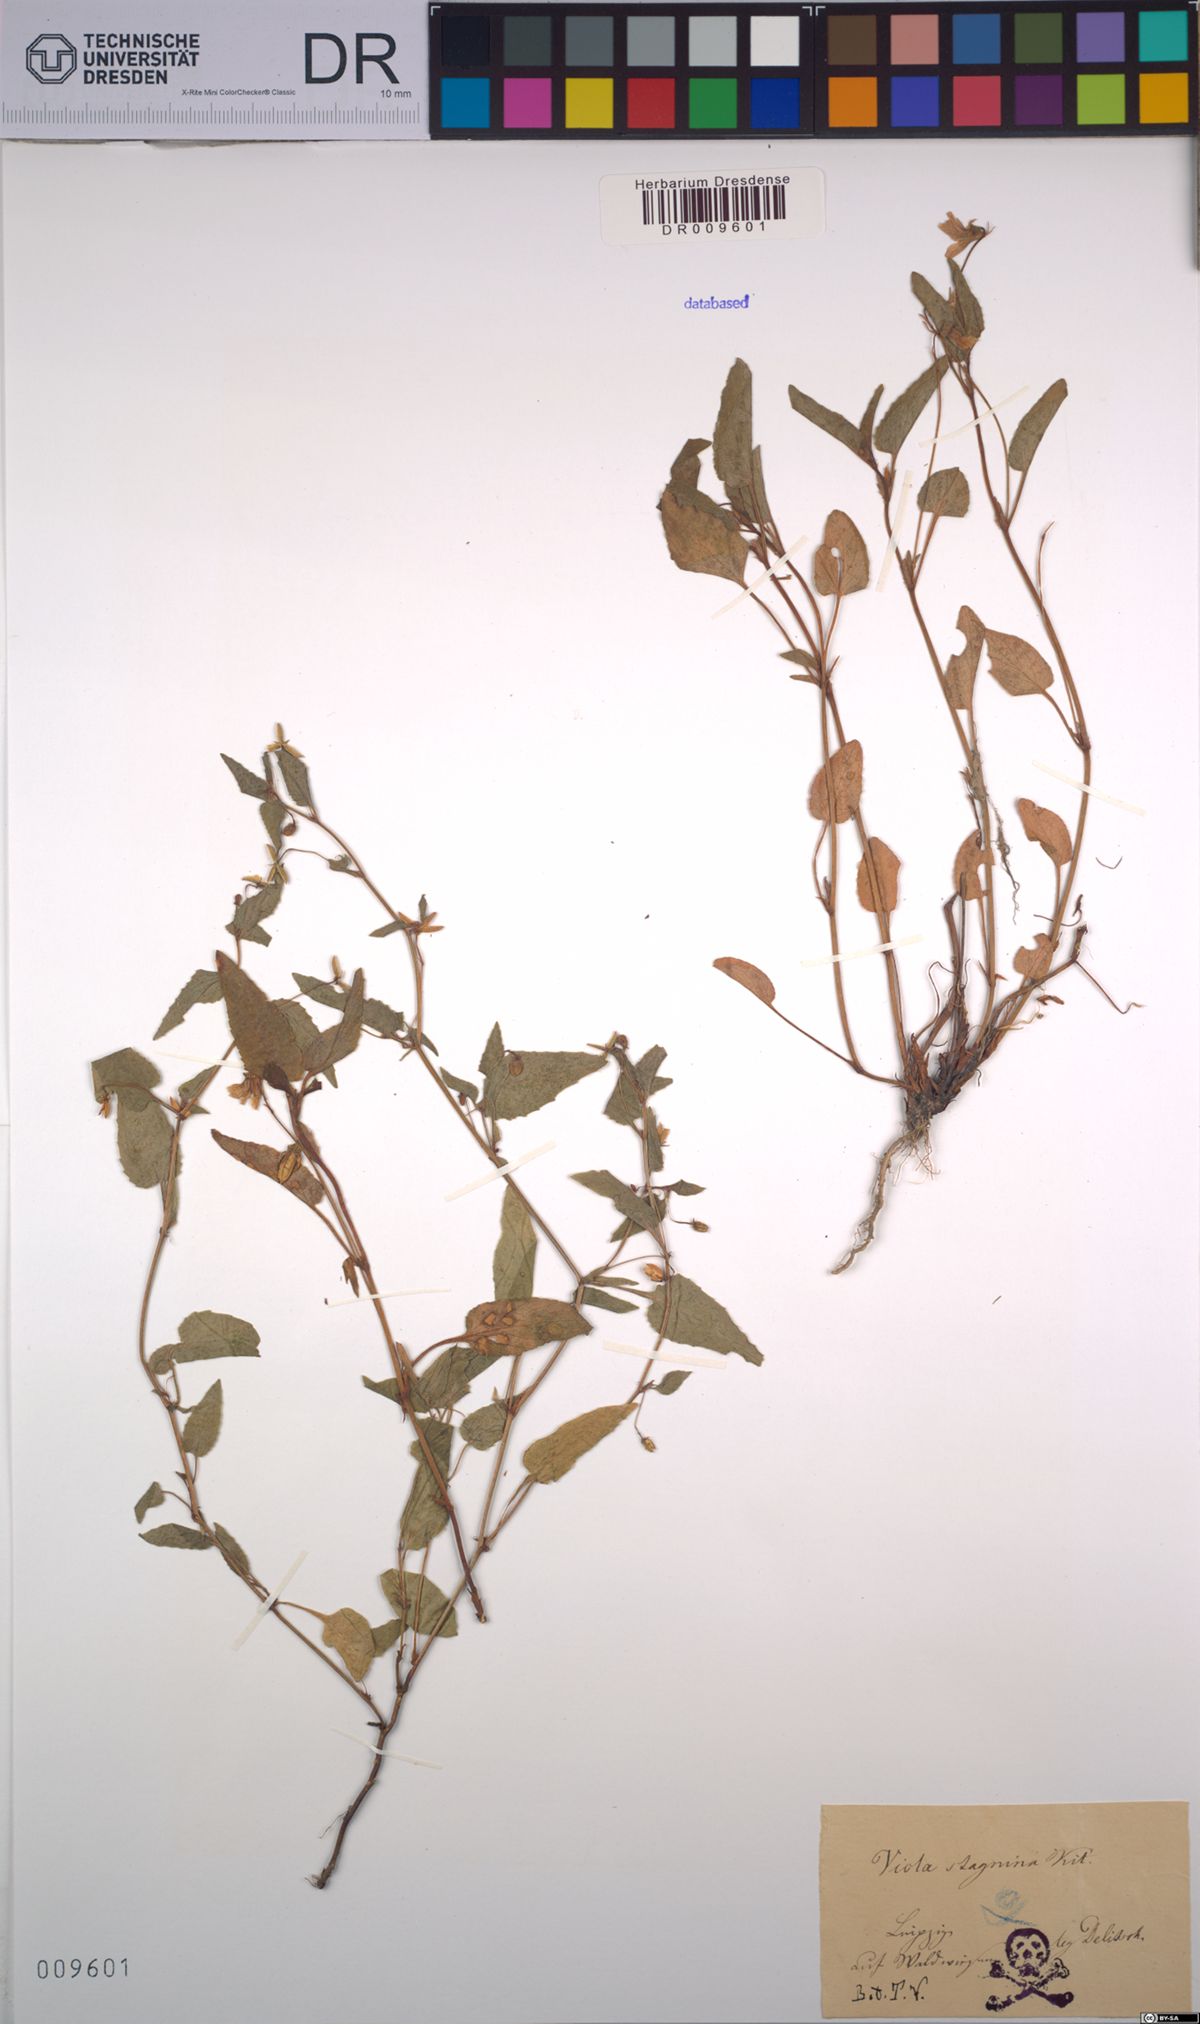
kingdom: Plantae
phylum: Tracheophyta
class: Magnoliopsida
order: Malpighiales
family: Violaceae
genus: Viola
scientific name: Viola stagnina
